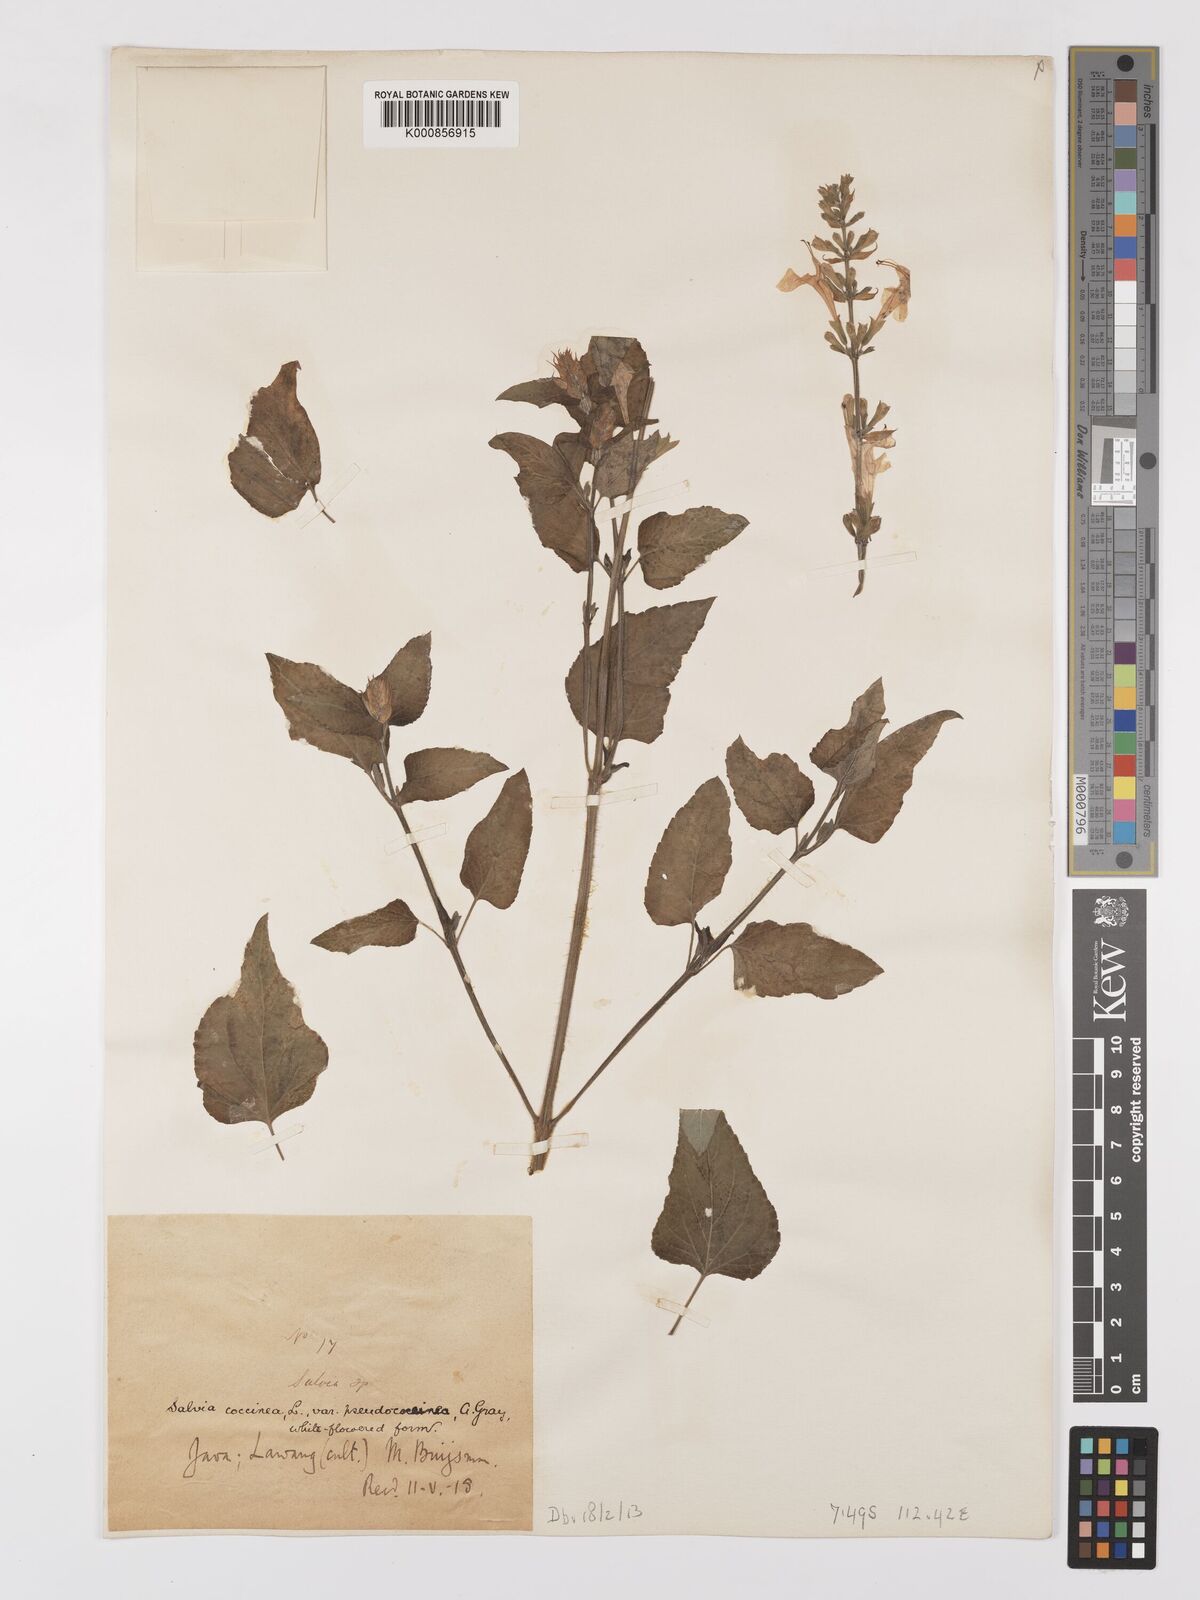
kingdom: Plantae
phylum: Tracheophyta
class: Magnoliopsida
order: Lamiales
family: Lamiaceae
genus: Salvia
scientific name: Salvia coccinea
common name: Blood sage
